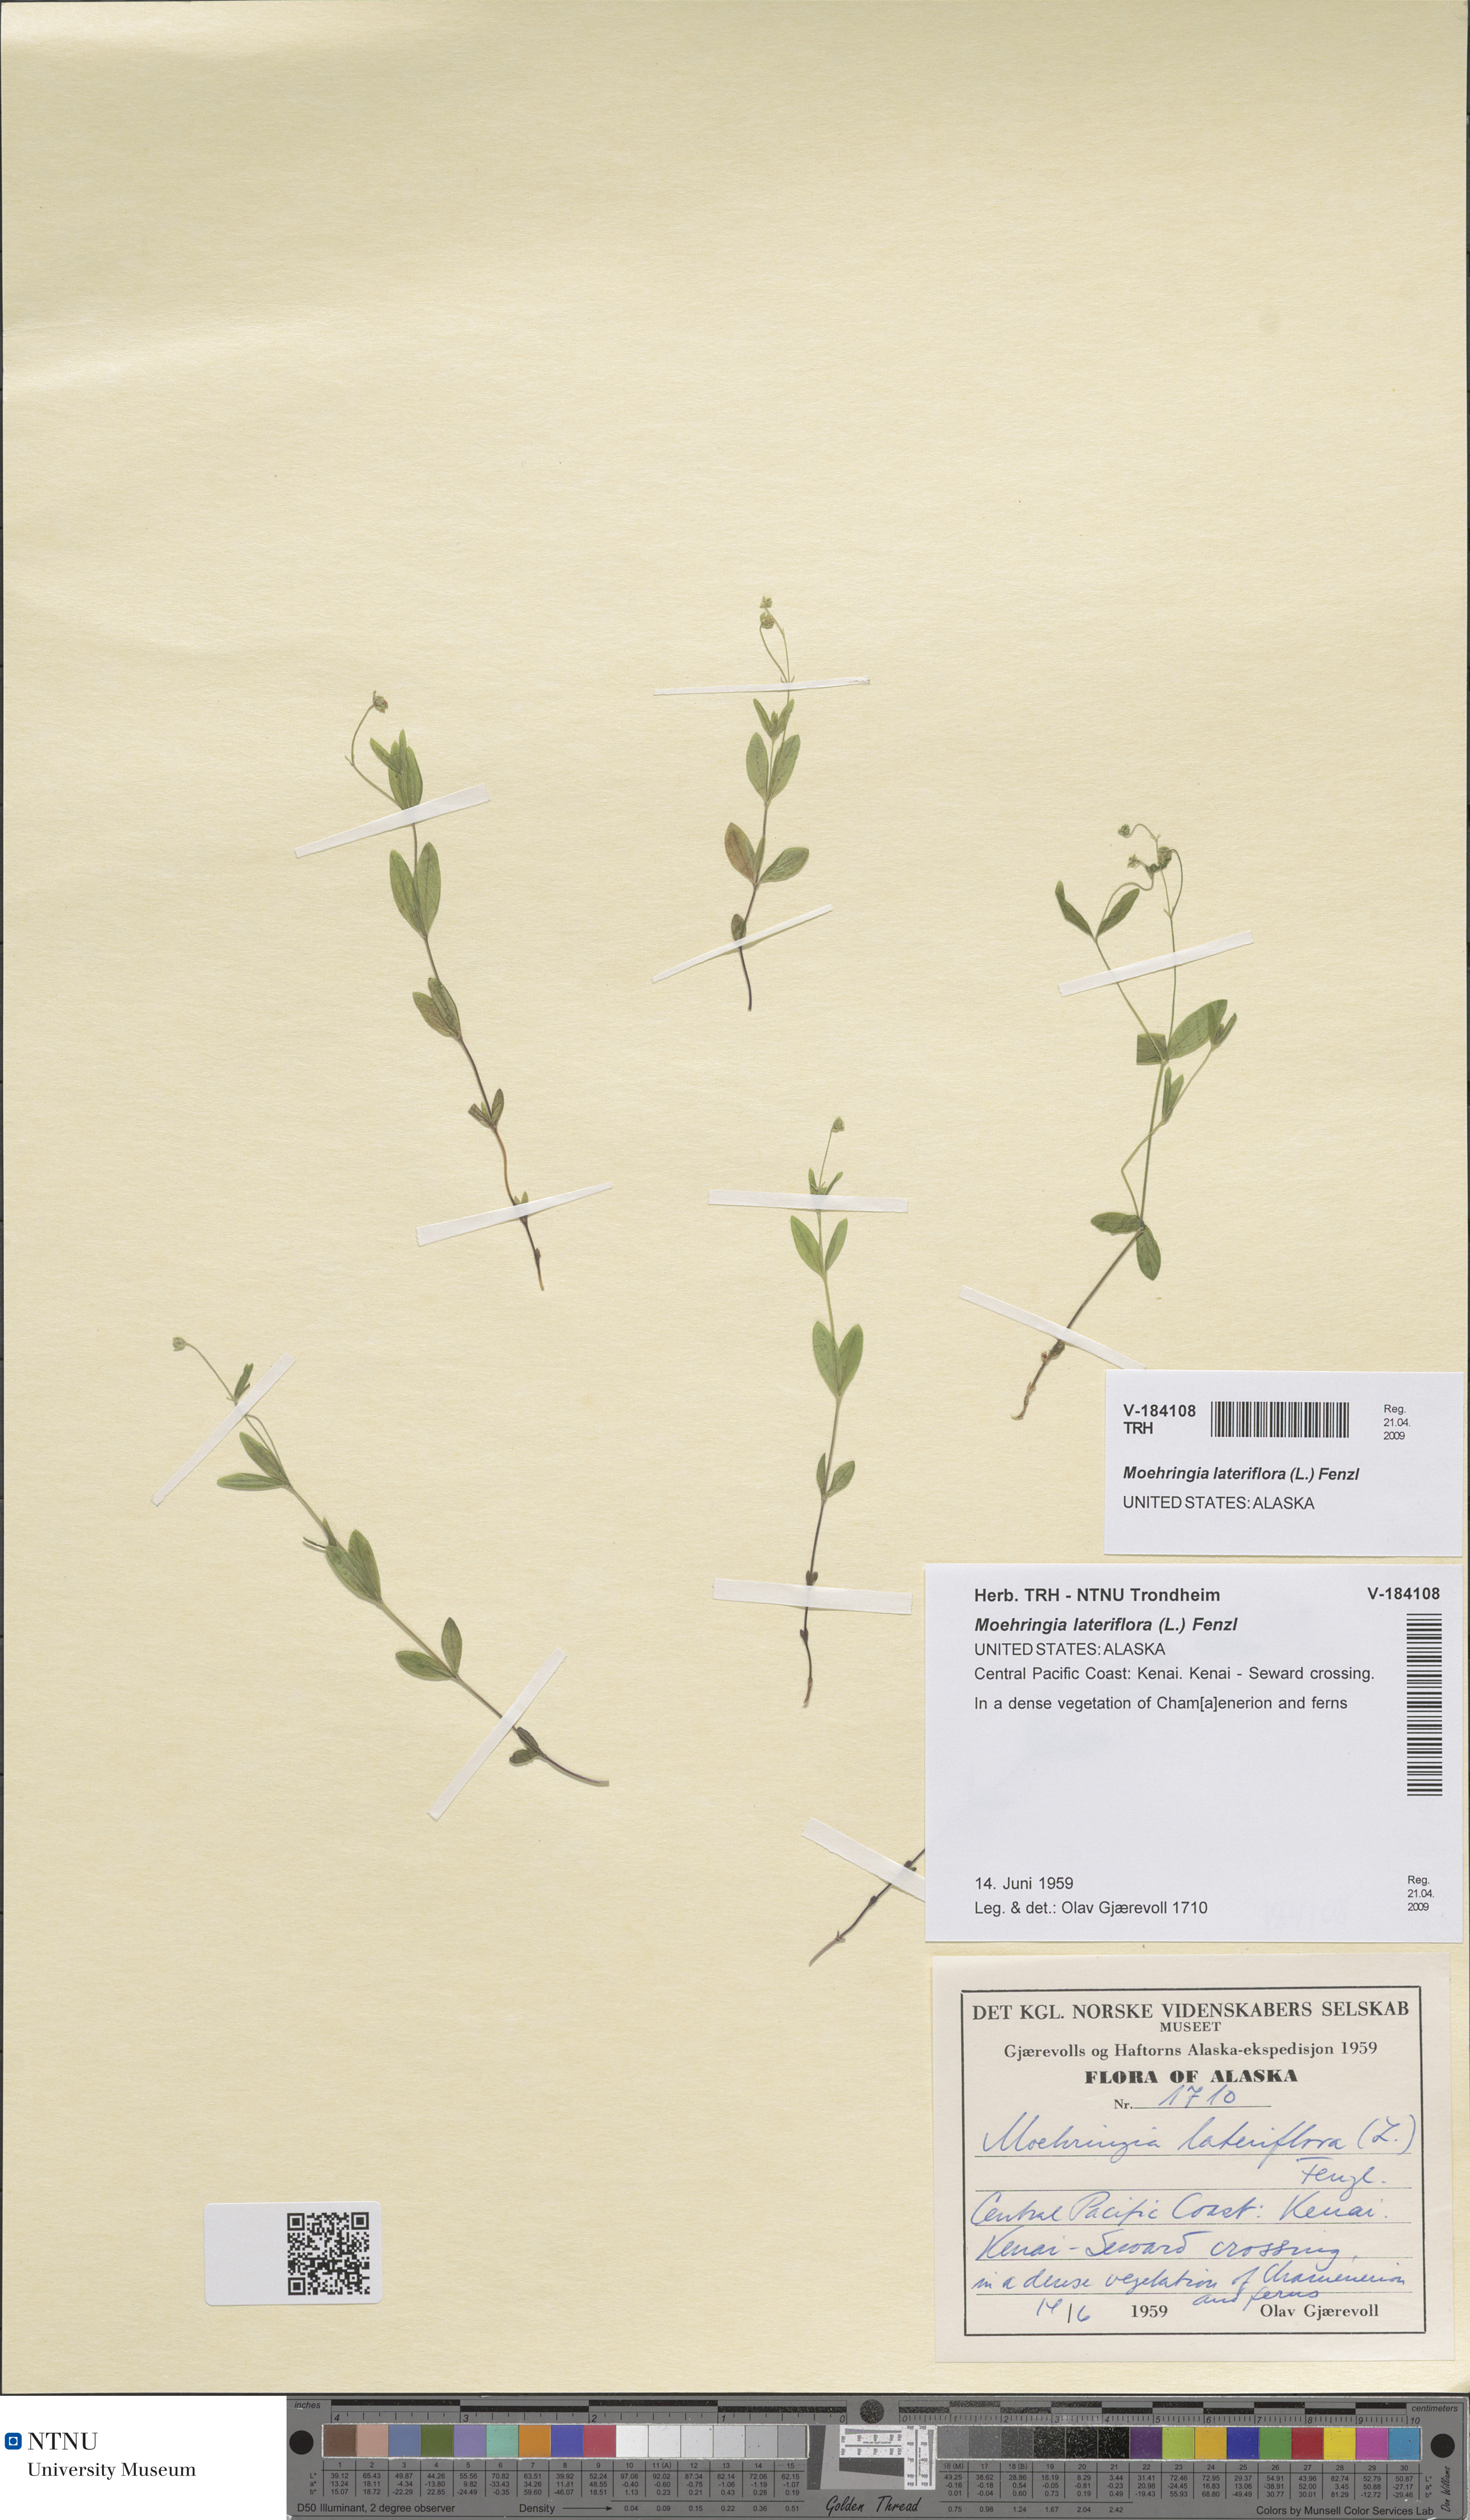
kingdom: Plantae
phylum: Tracheophyta
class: Magnoliopsida
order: Caryophyllales
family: Caryophyllaceae
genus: Moehringia
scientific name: Moehringia lateriflora
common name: Blunt-leaved sandwort
